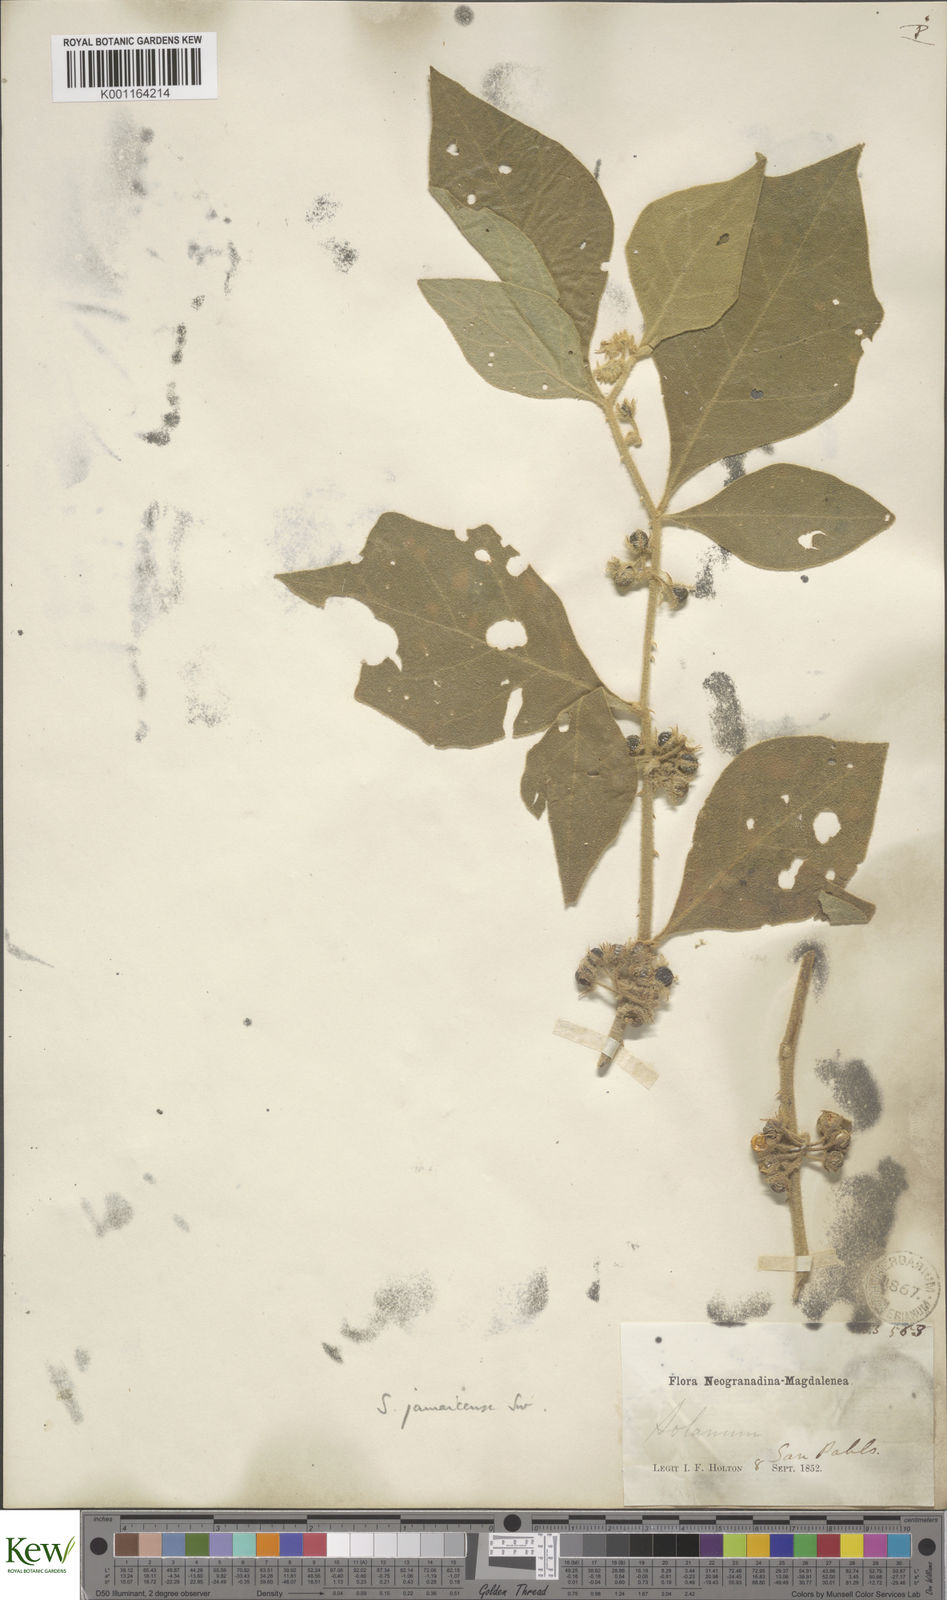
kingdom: Plantae
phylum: Tracheophyta
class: Magnoliopsida
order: Solanales
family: Solanaceae
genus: Solanum
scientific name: Solanum jamaicense
